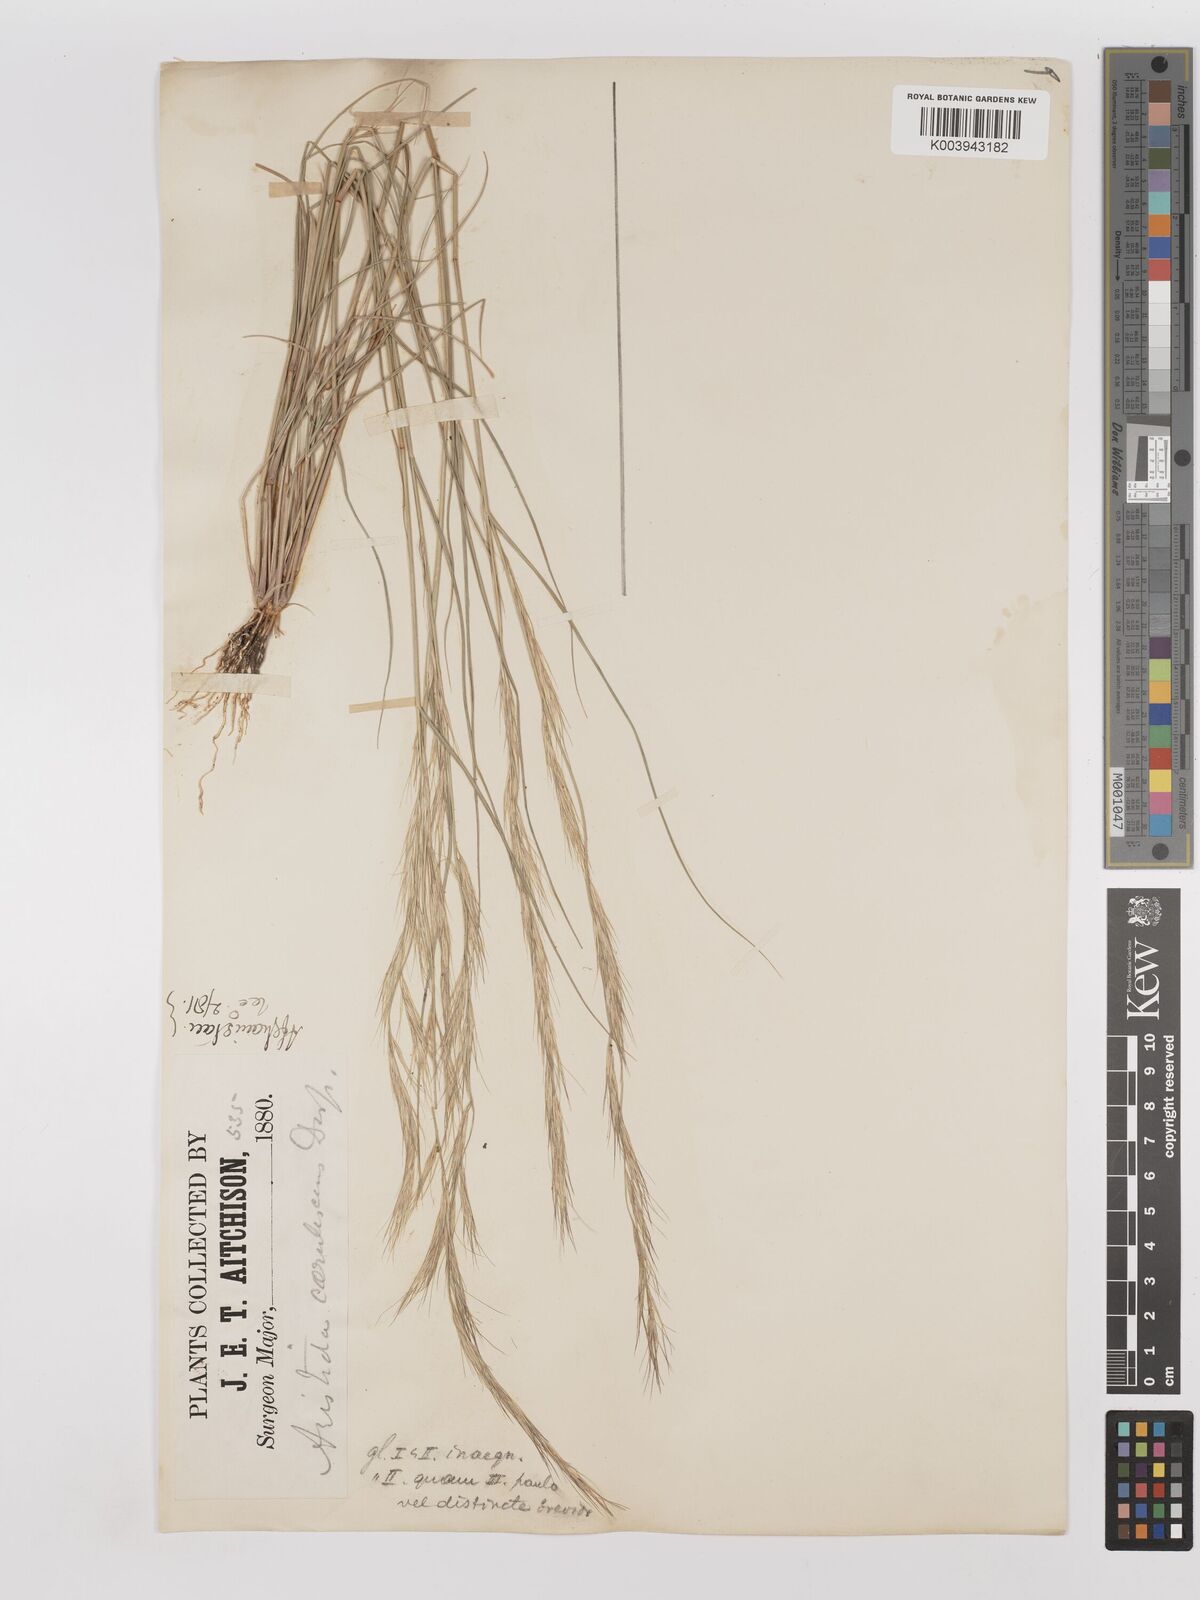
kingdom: Plantae
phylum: Tracheophyta
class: Liliopsida
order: Poales
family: Poaceae
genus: Aristida
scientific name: Aristida adscensionis
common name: Sixweeks threeawn
